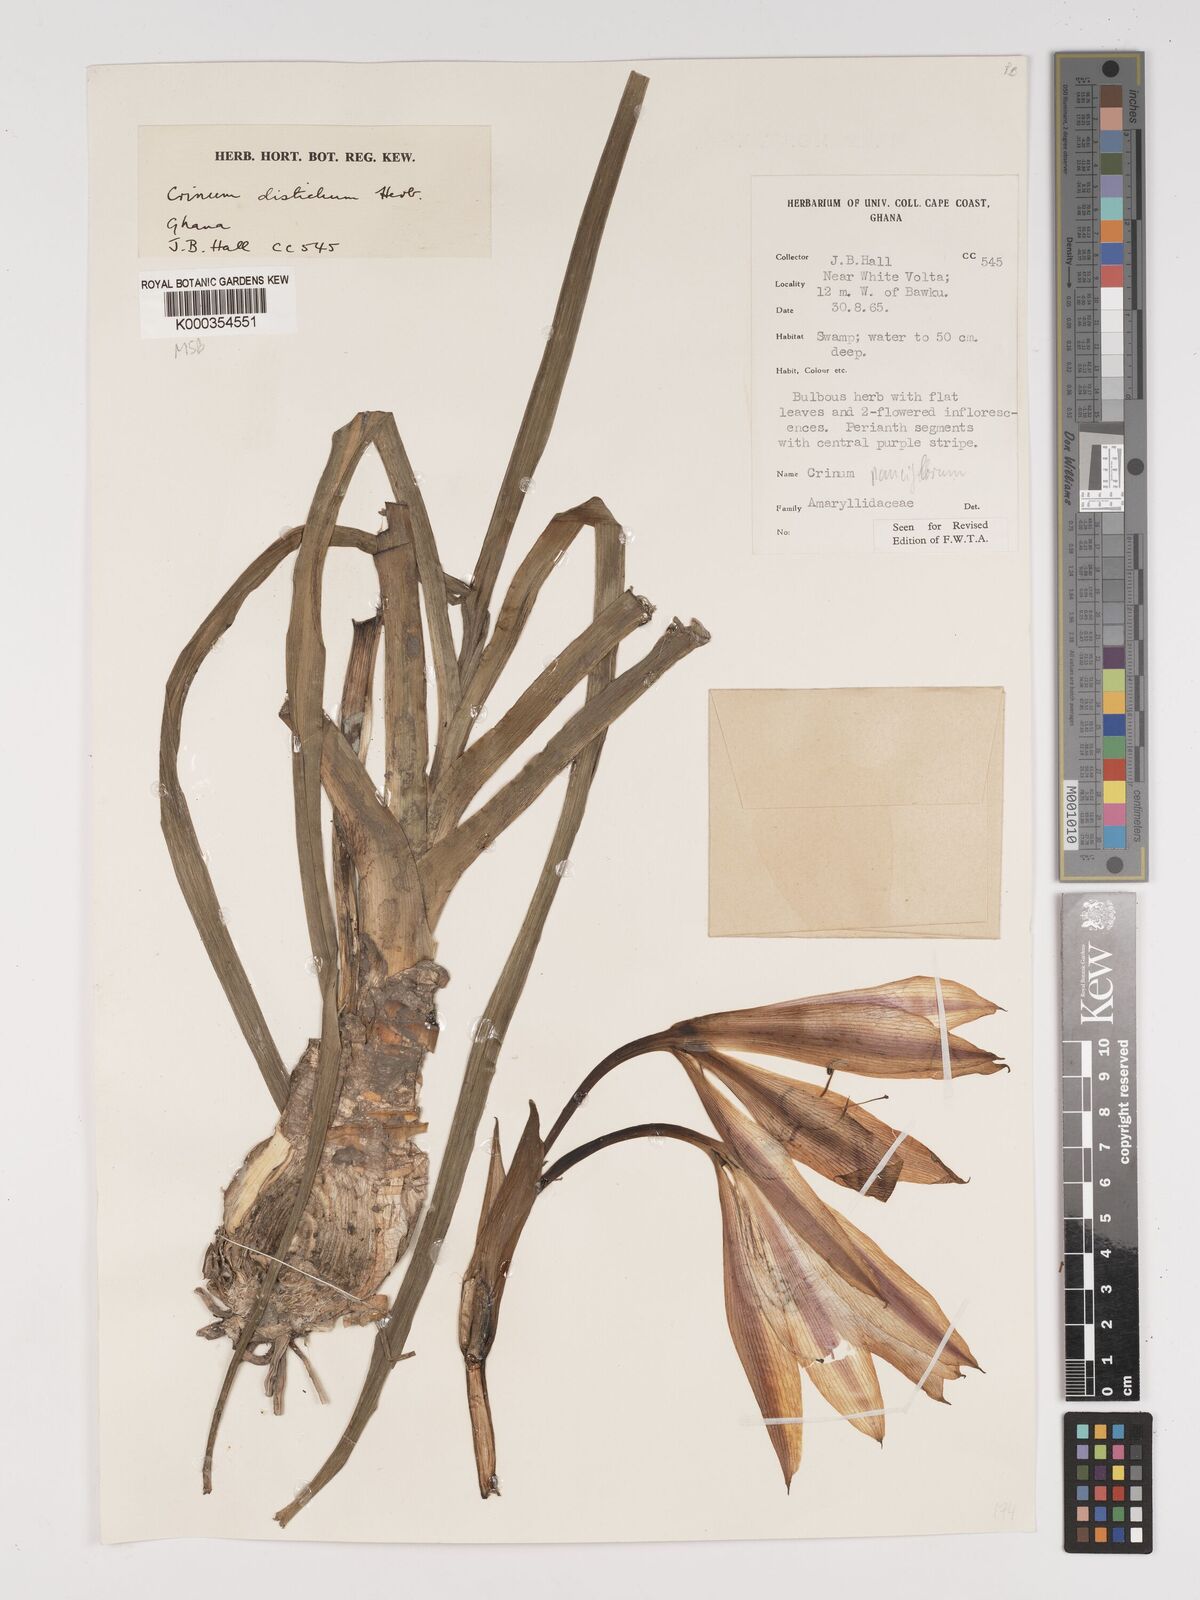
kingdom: Plantae
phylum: Tracheophyta
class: Liliopsida
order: Asparagales
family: Amaryllidaceae
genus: Crinum
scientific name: Crinum zeylanicum
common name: Ceylon swamplily
